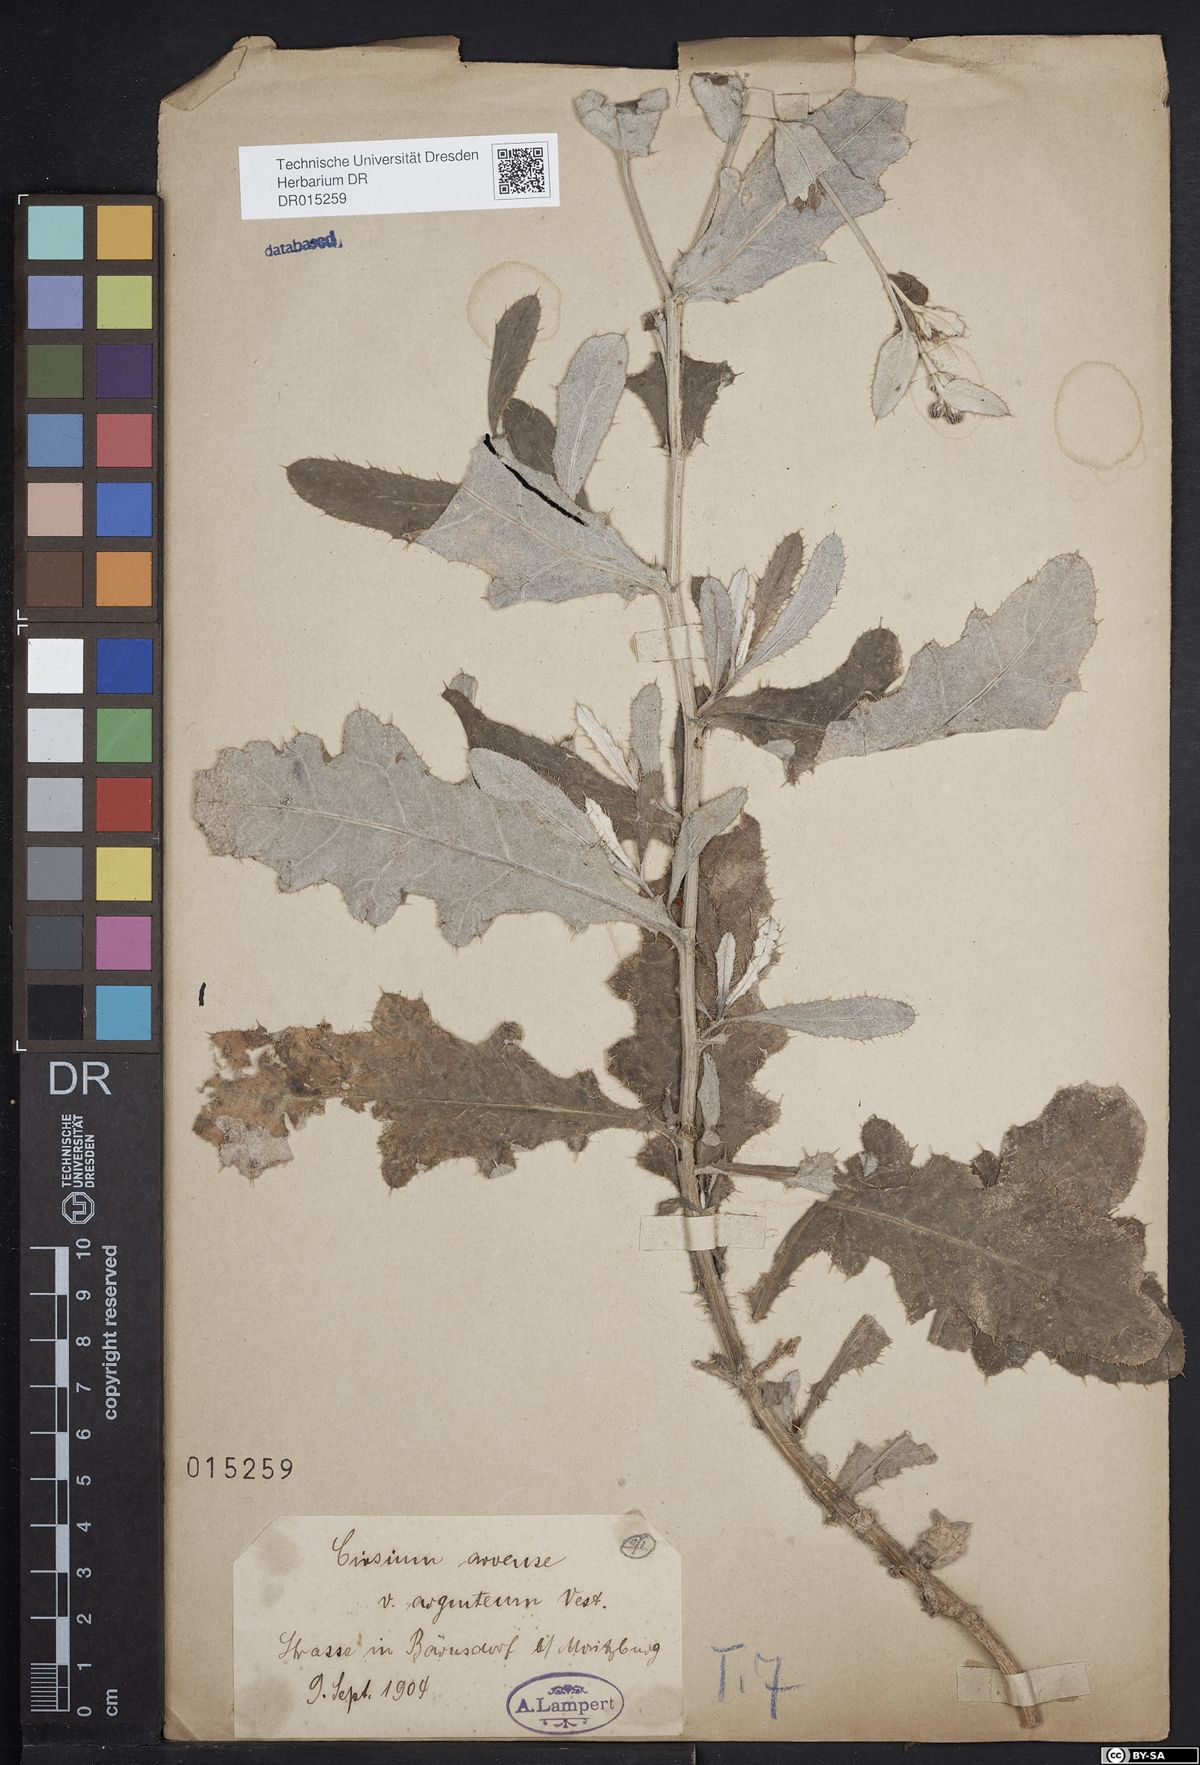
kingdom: Plantae
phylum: Tracheophyta
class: Magnoliopsida
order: Asterales
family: Asteraceae
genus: Cirsium
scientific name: Cirsium arvense
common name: Creeping thistle
